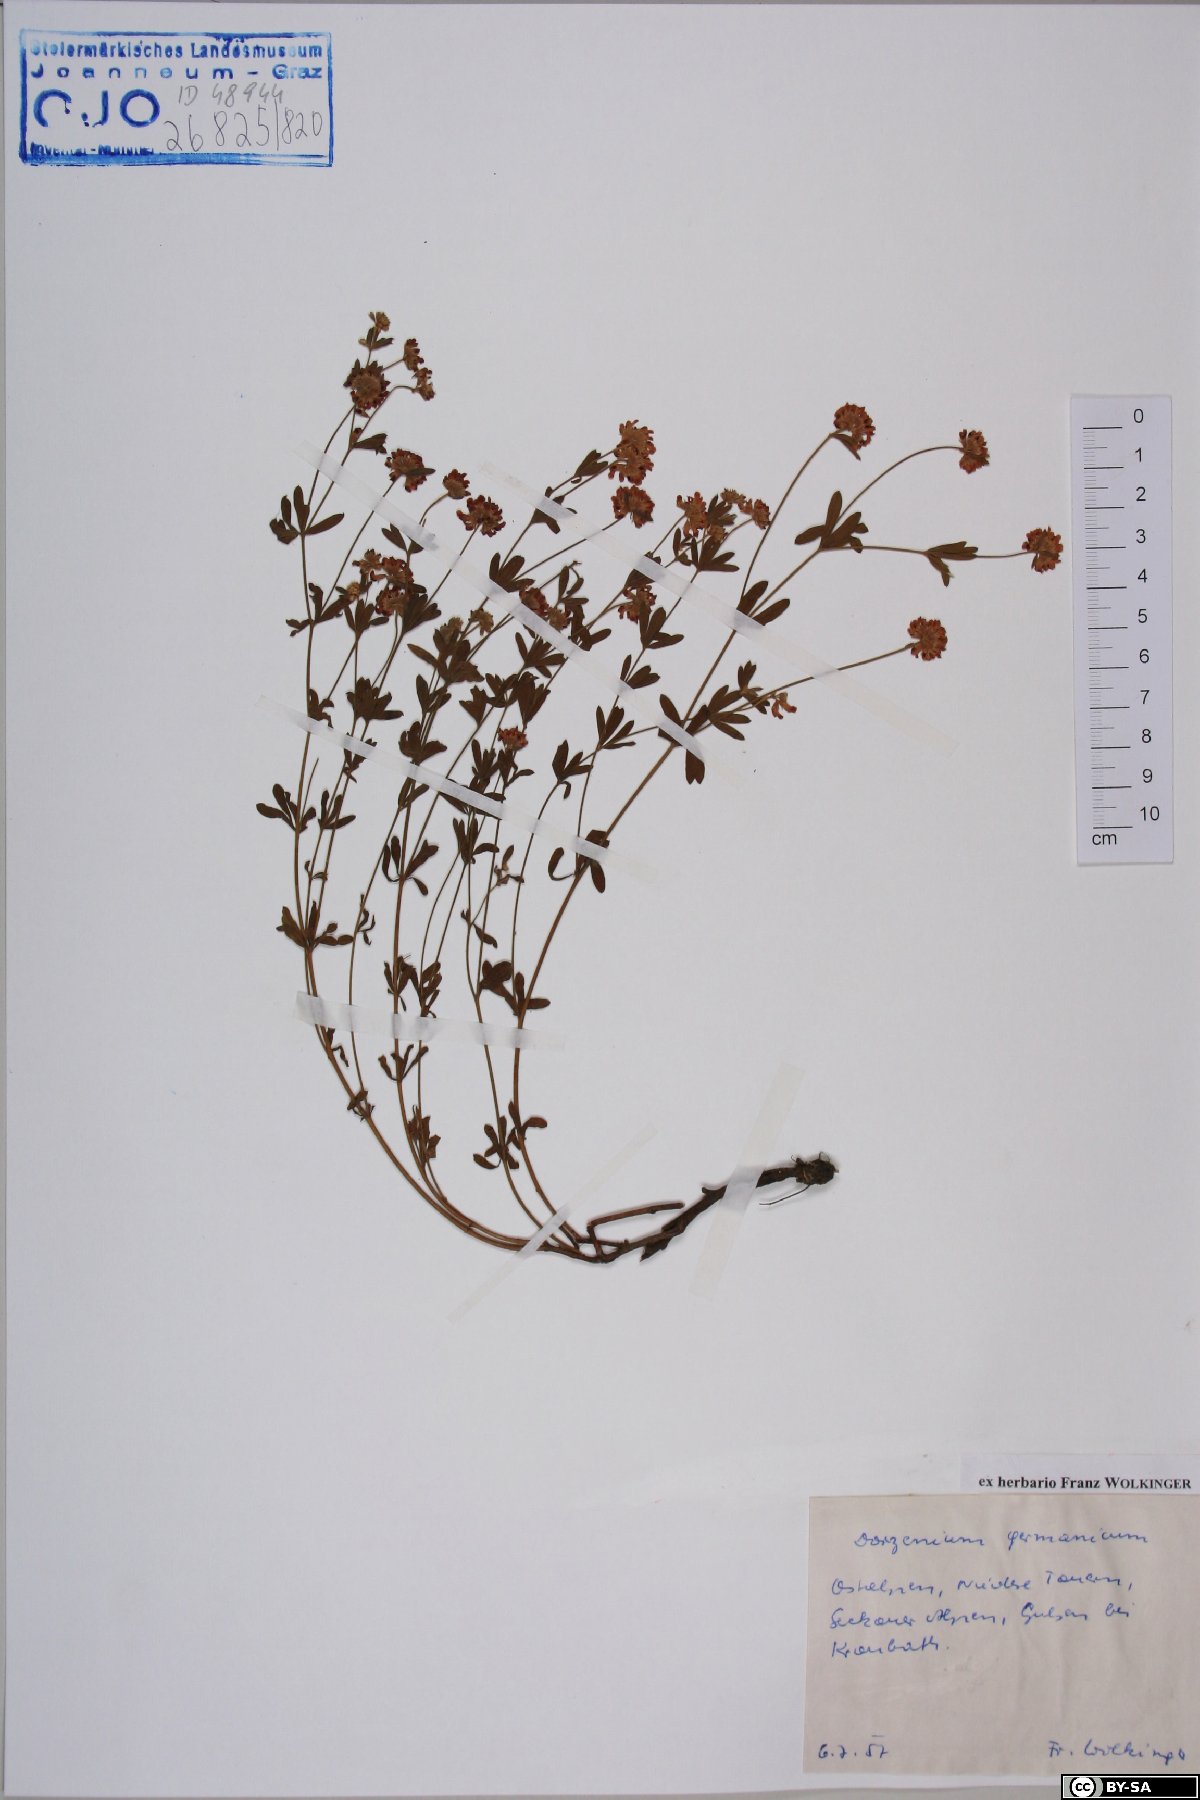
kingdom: Plantae
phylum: Tracheophyta
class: Magnoliopsida
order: Fabales
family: Fabaceae
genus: Lotus
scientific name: Lotus germanicus
